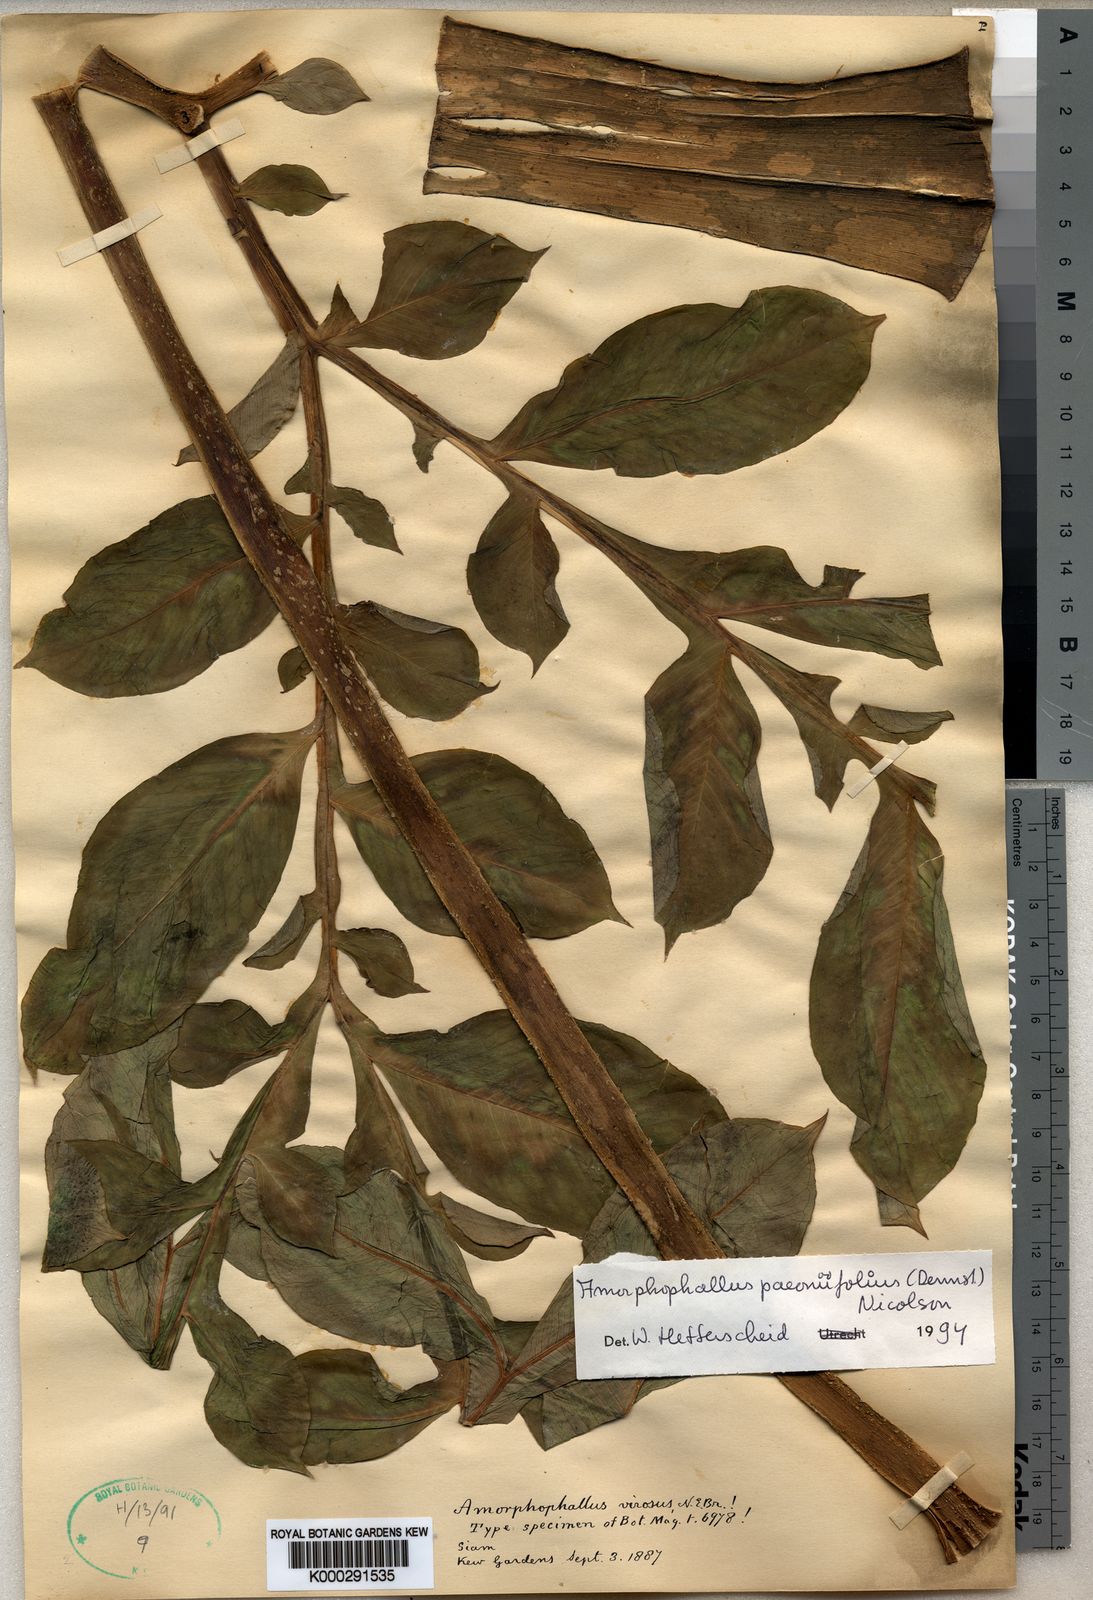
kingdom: Plantae
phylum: Tracheophyta
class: Liliopsida
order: Alismatales
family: Araceae
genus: Amorphophallus
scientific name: Amorphophallus paeoniifolius
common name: Telinga-potato
